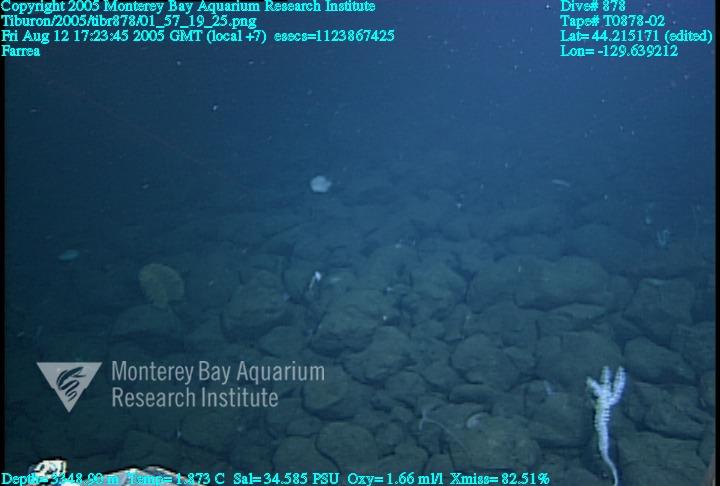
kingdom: Animalia
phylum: Porifera
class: Hexactinellida
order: Sceptrulophora
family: Farreidae
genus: Farrea
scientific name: Farrea
